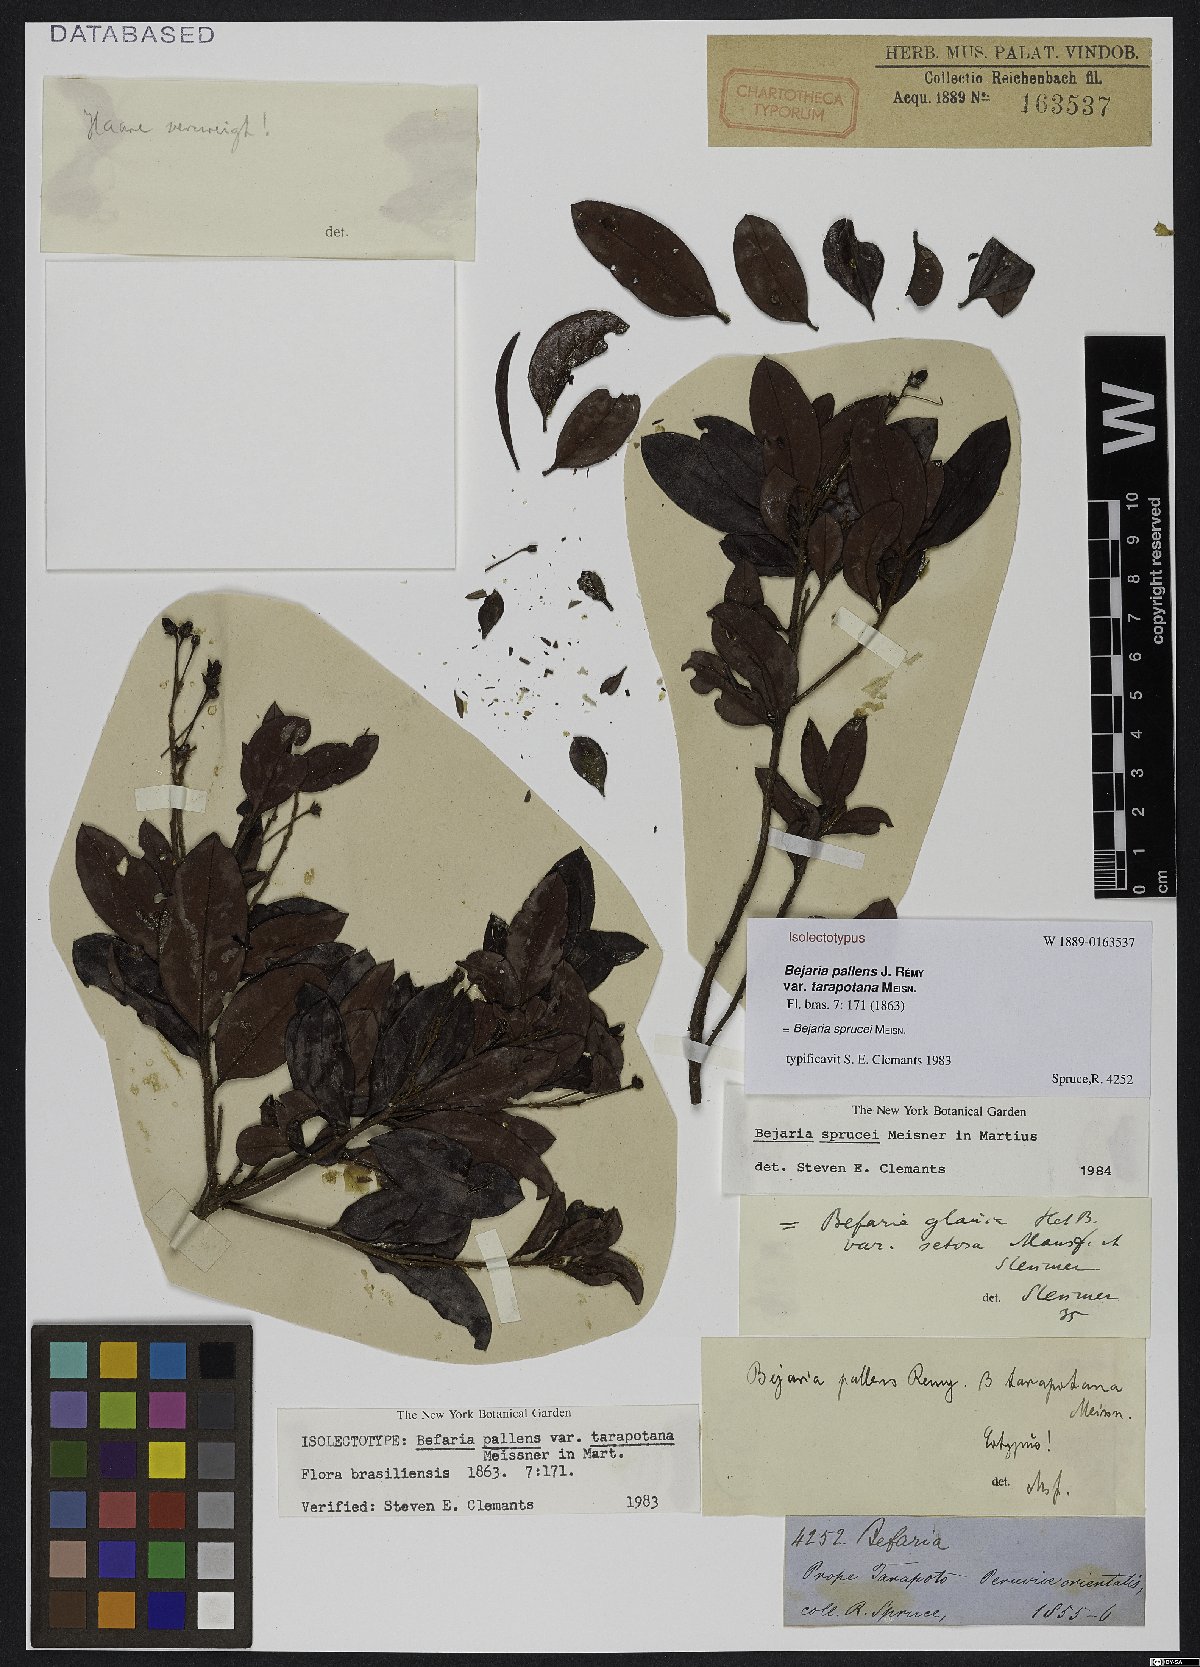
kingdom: Plantae
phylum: Tracheophyta
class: Magnoliopsida
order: Ericales
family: Ericaceae
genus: Bejaria
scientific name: Bejaria sprucei
